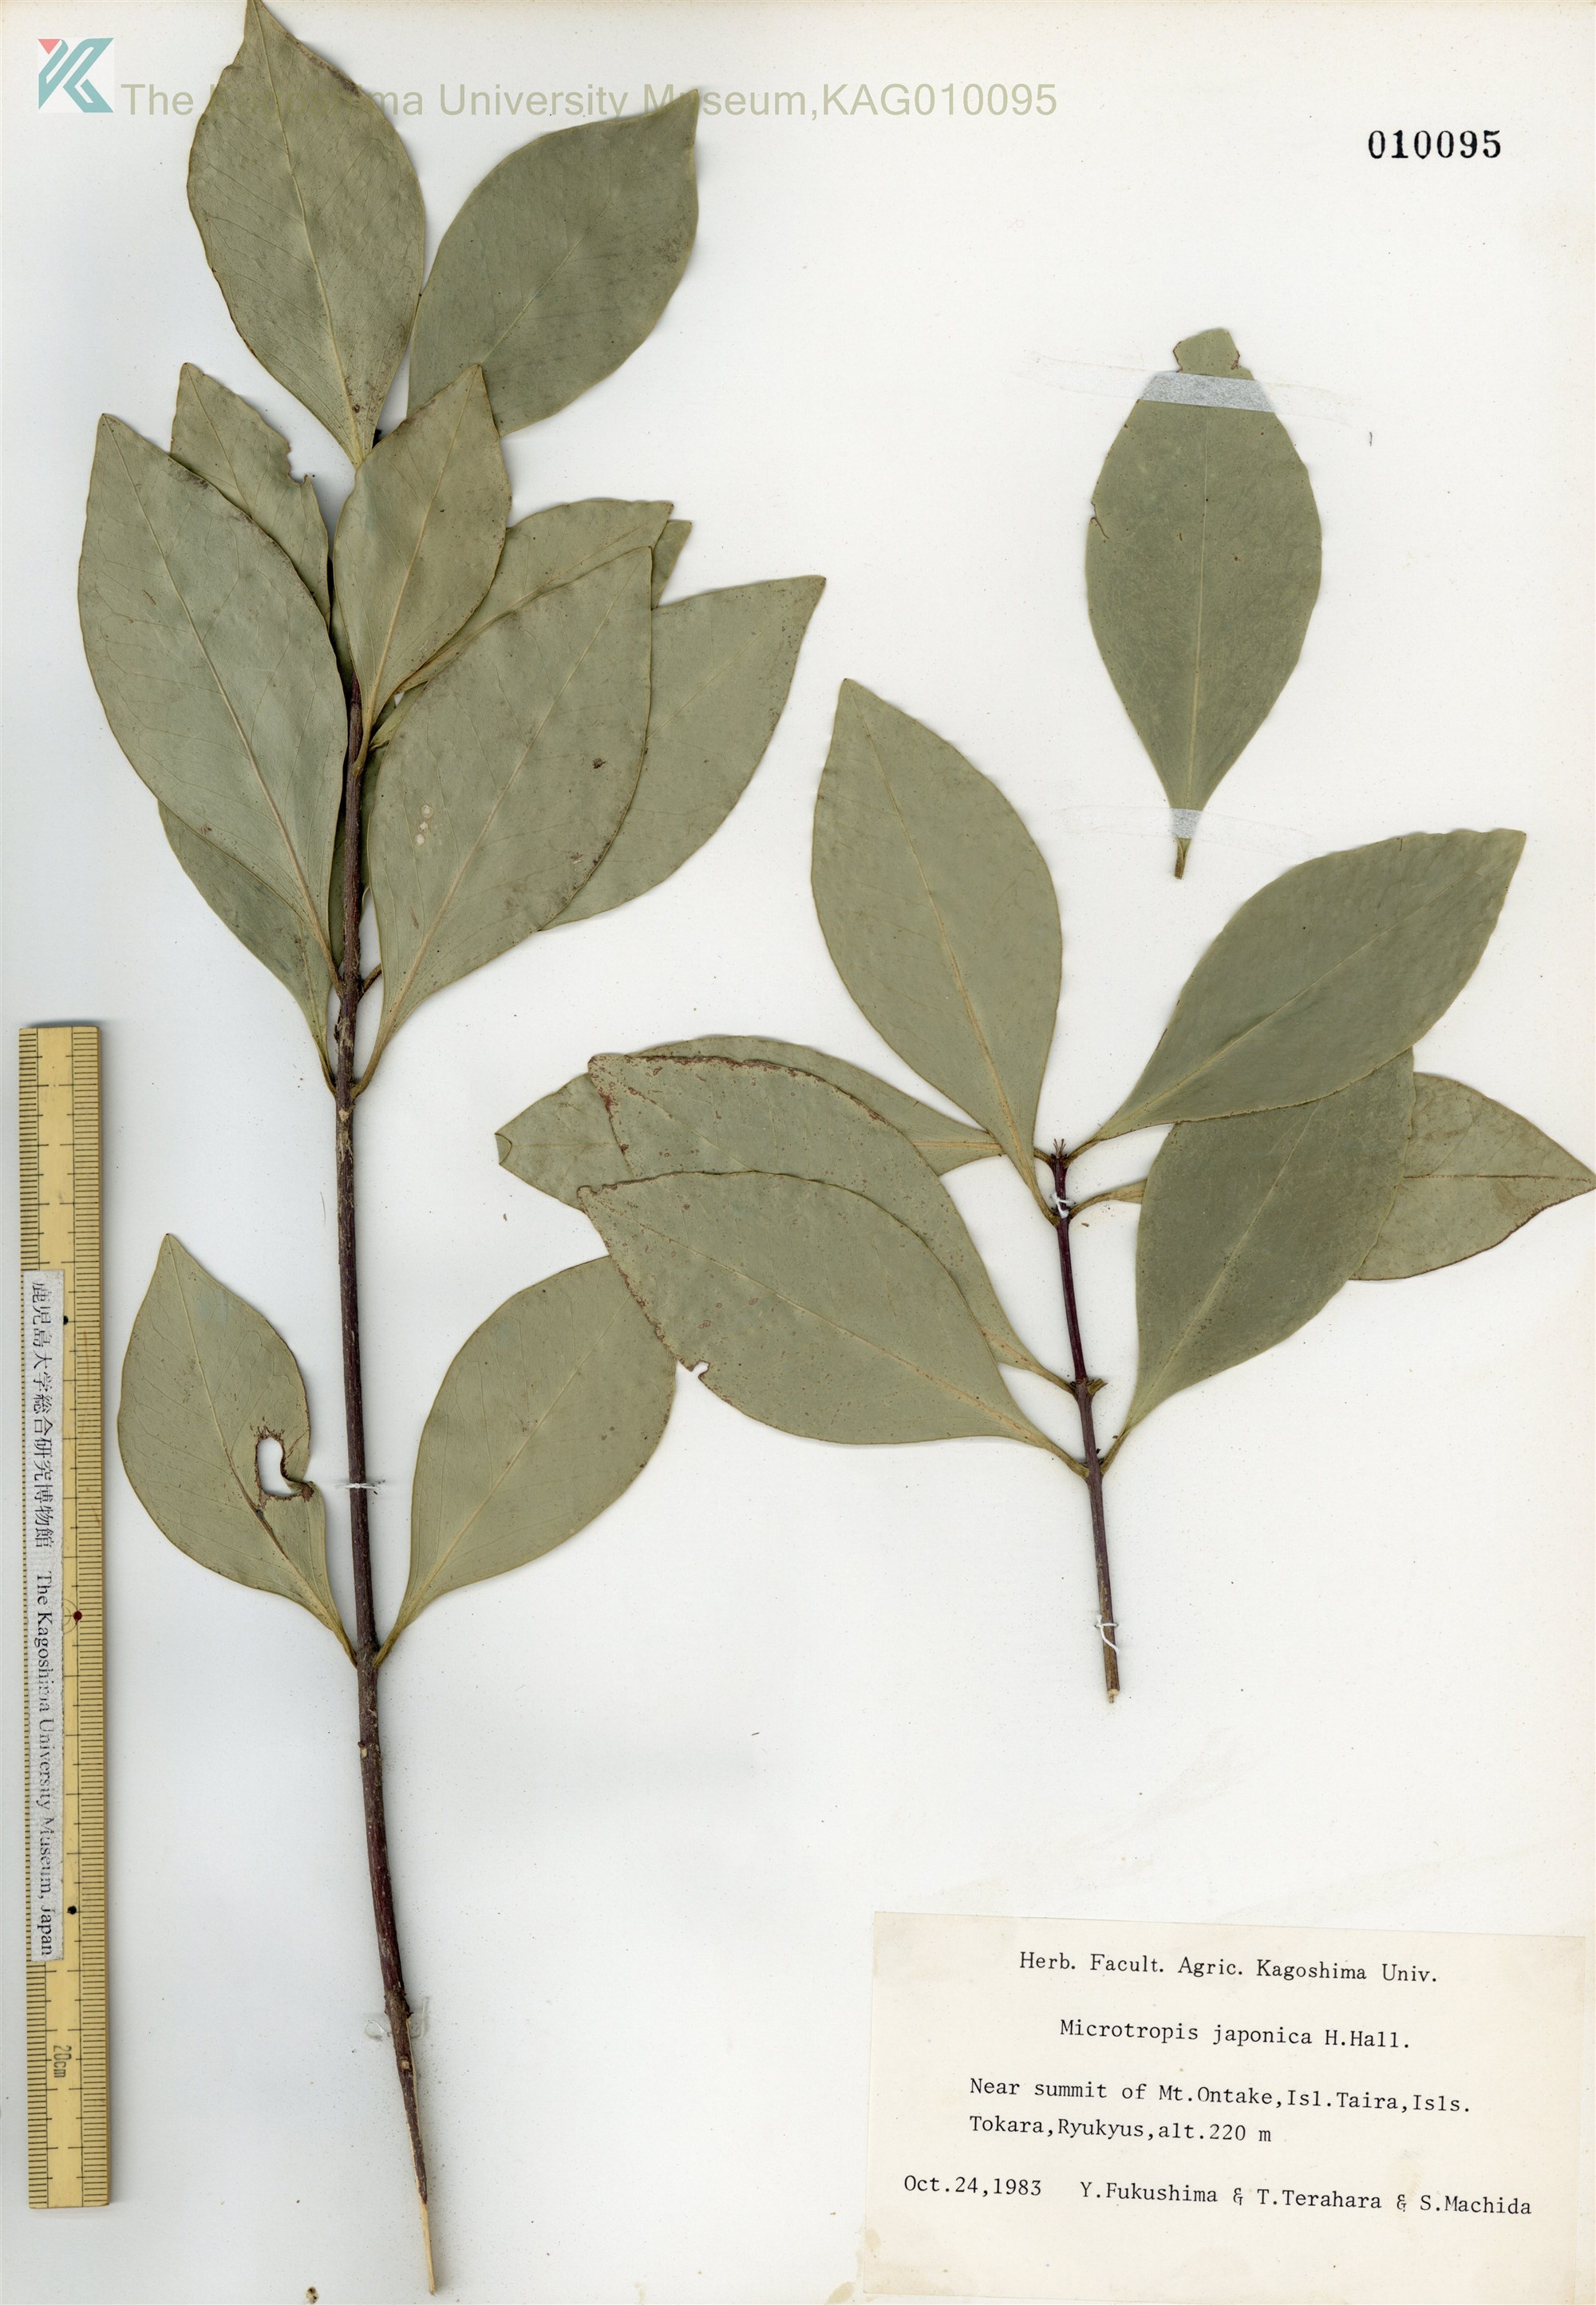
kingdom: Plantae
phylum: Tracheophyta
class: Magnoliopsida
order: Celastrales
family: Celastraceae
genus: Microtropis
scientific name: Microtropis japonica
